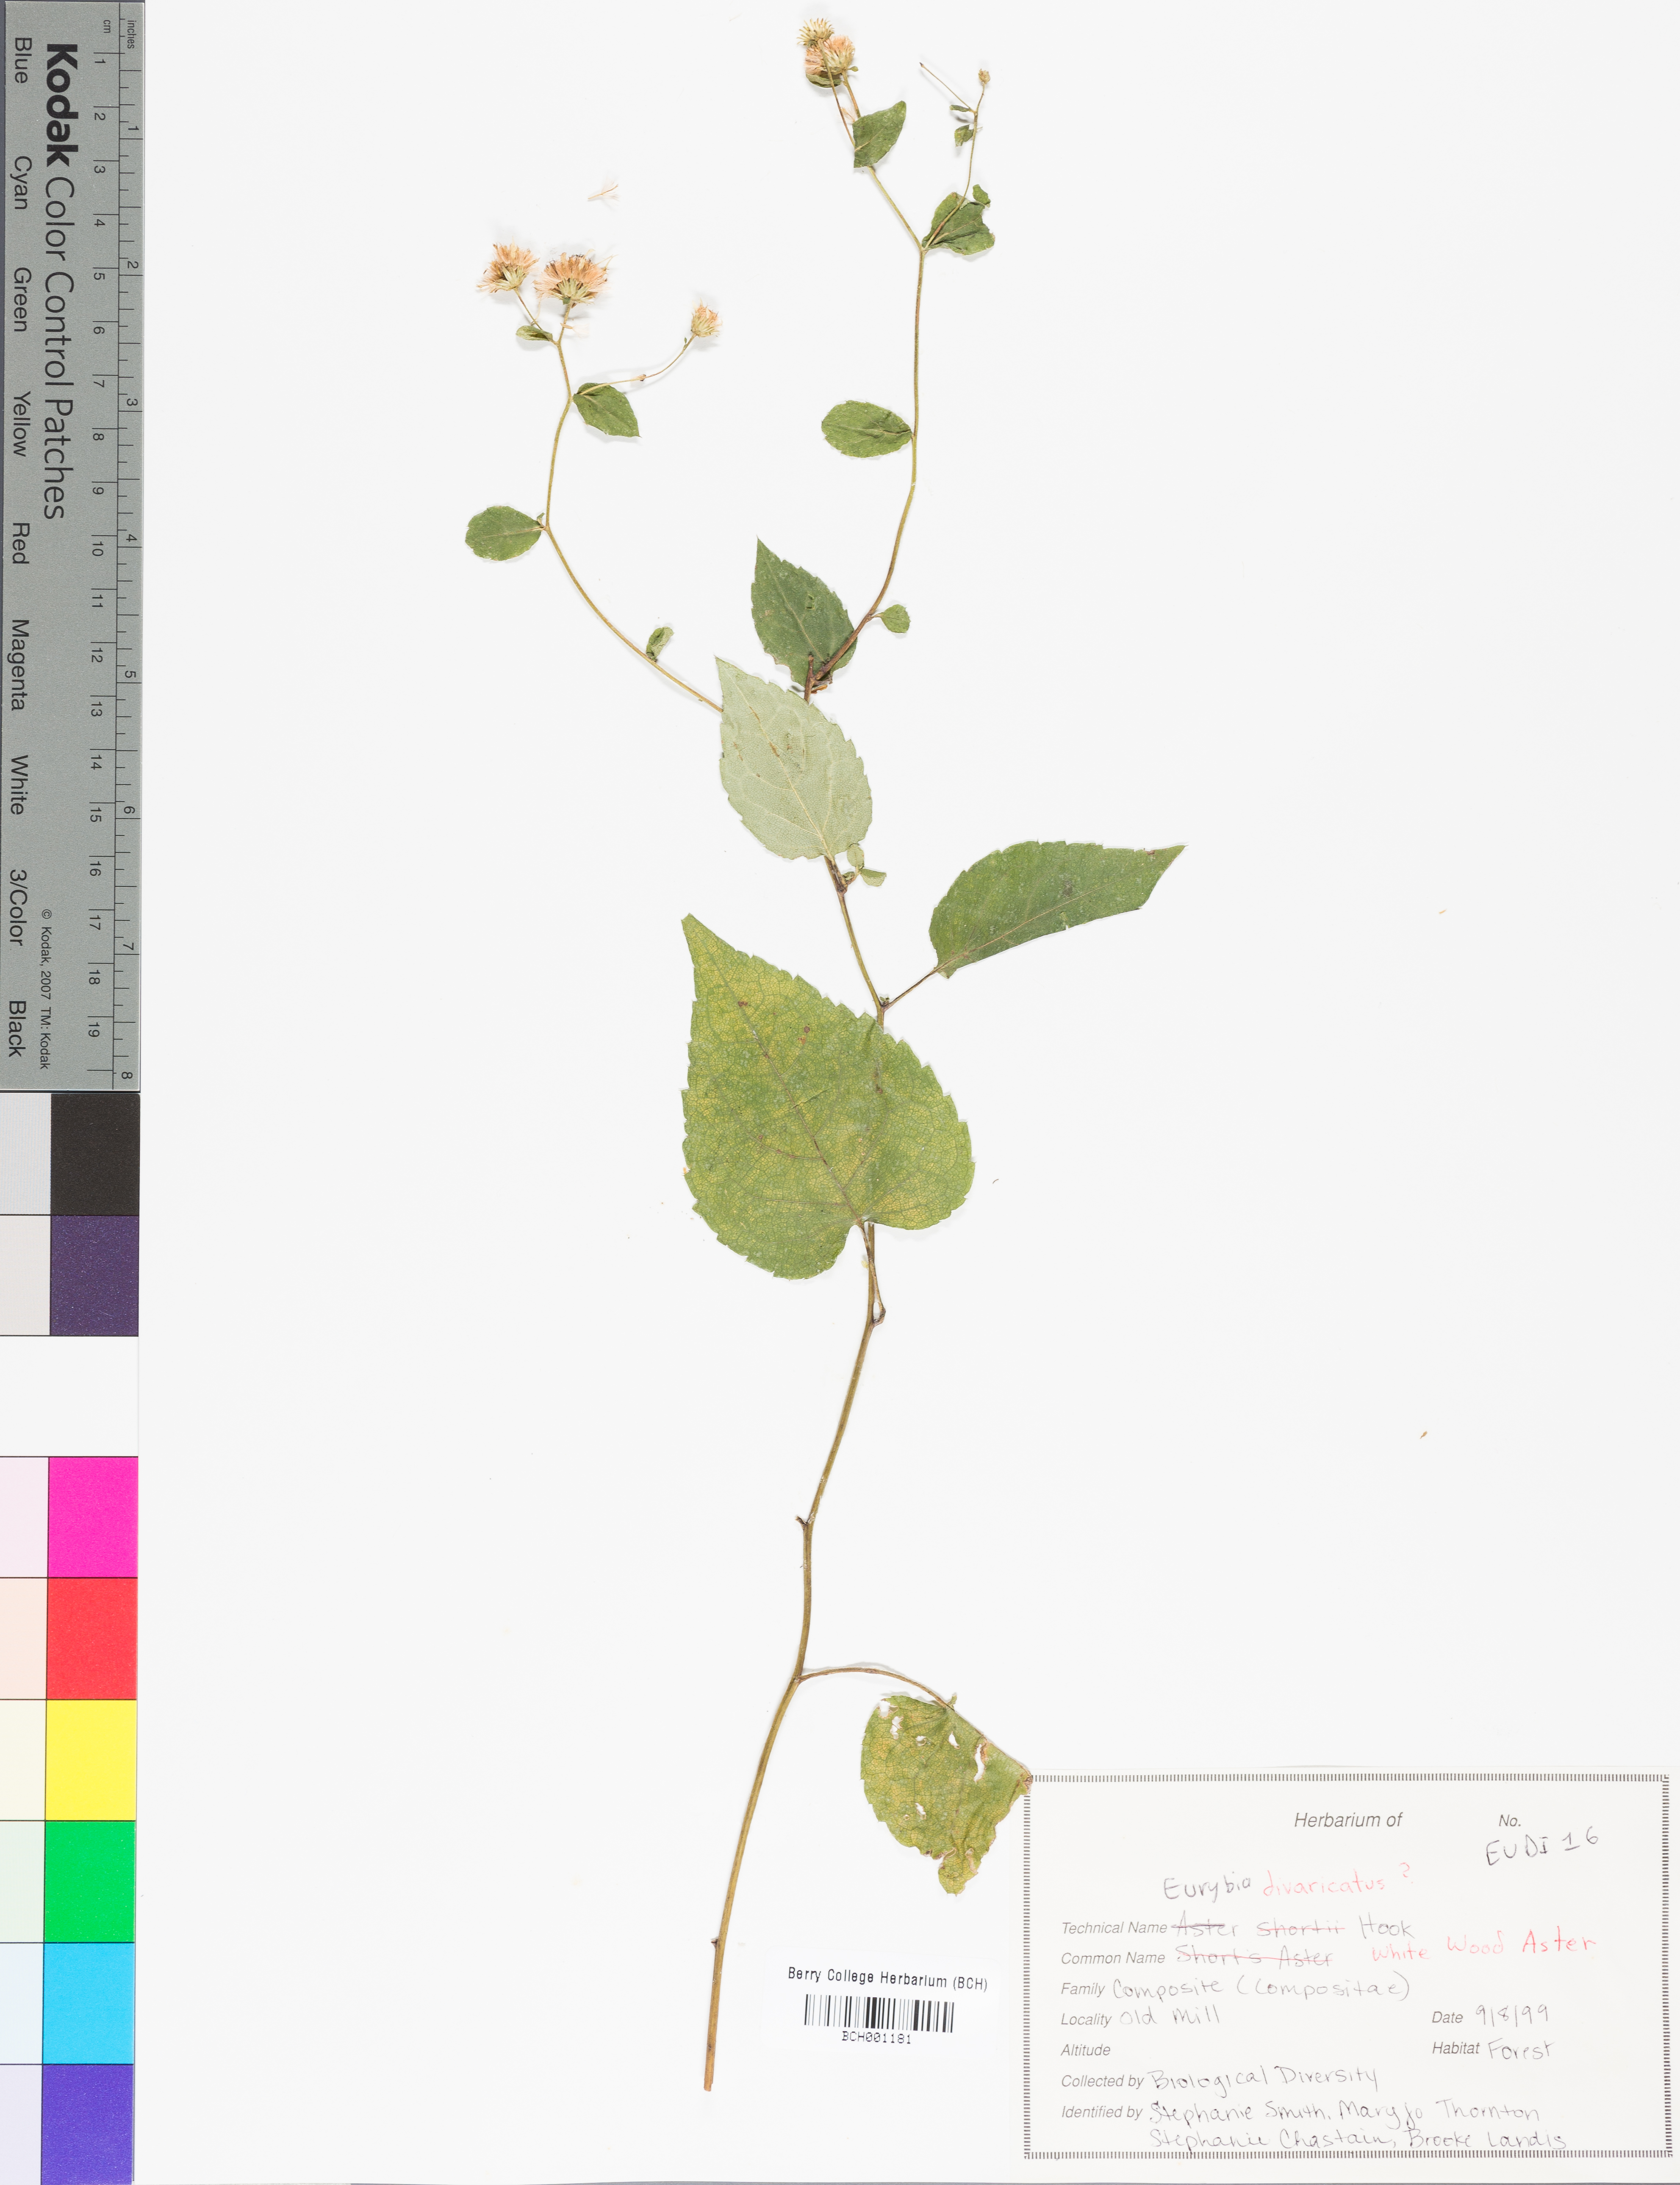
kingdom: Plantae
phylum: Tracheophyta
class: Magnoliopsida
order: Asterales
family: Asteraceae
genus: Eurybia
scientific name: Eurybia divaricata
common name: White wood aster
